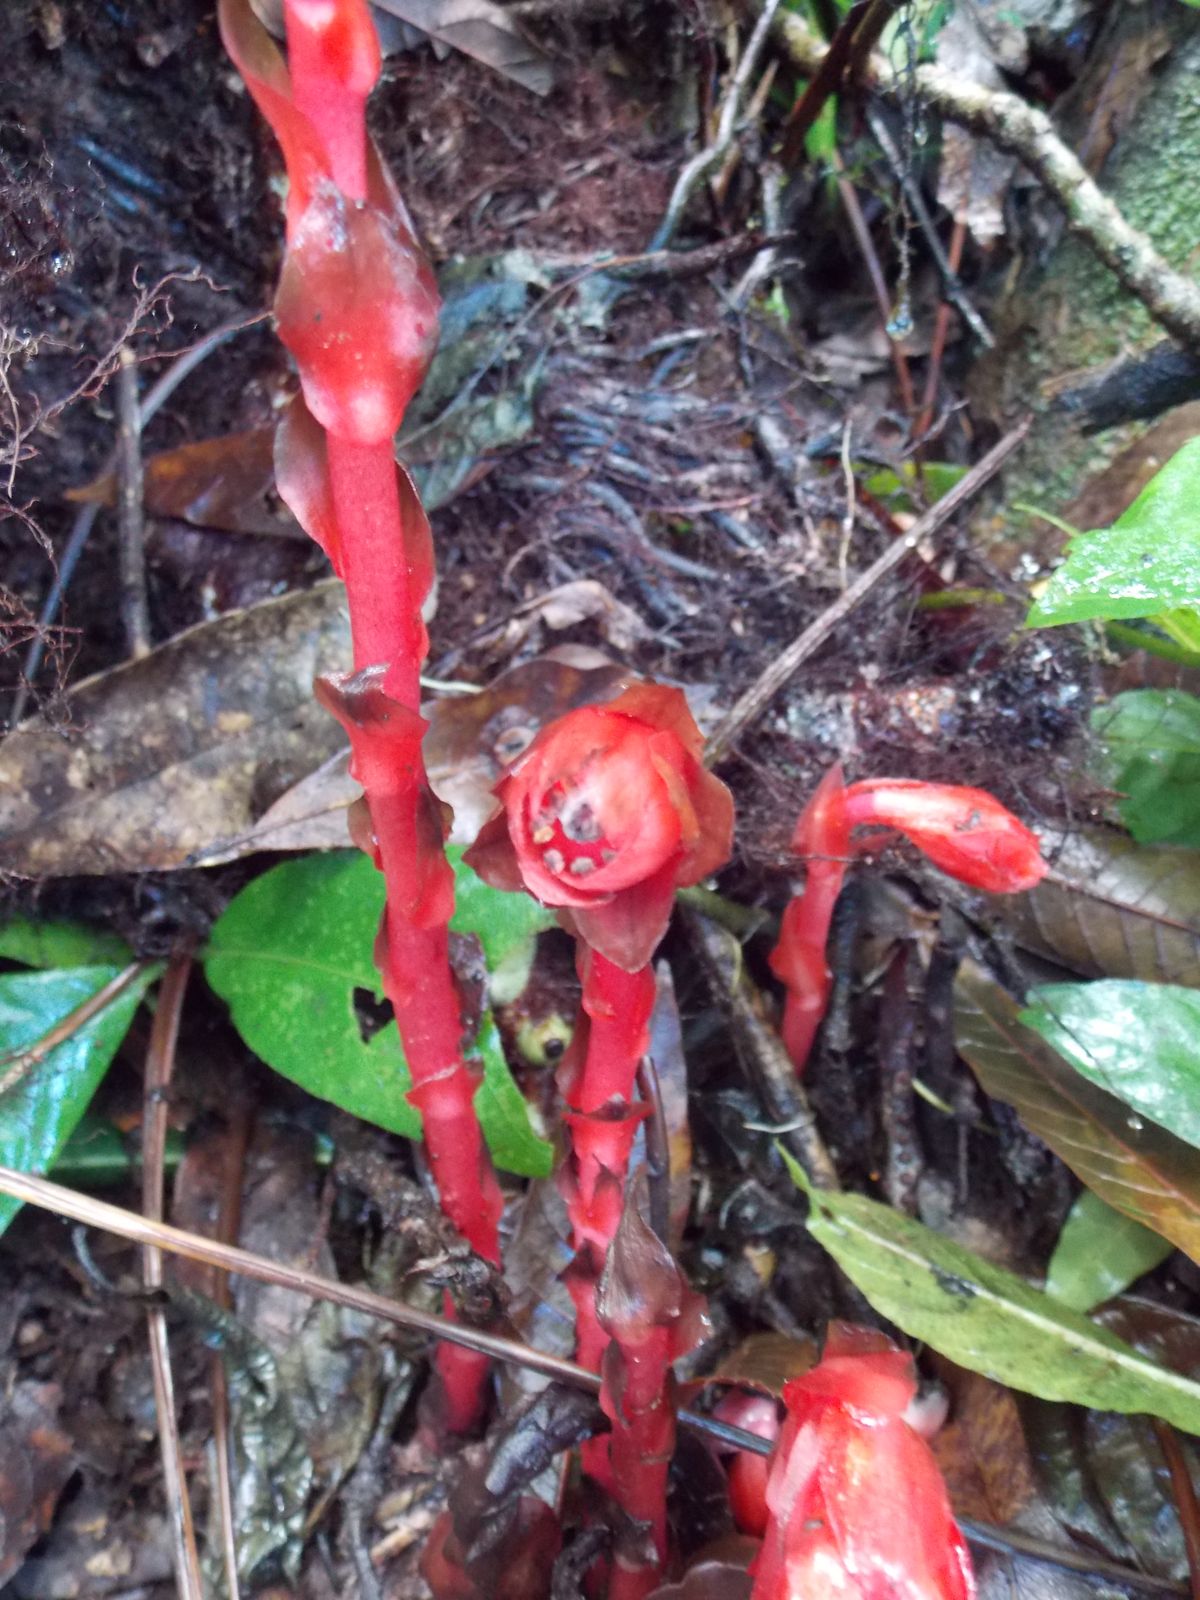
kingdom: Plantae
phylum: Tracheophyta
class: Magnoliopsida
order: Ericales
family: Ericaceae
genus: Monotropa
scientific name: Monotropa uniflora
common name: Convulsion root
